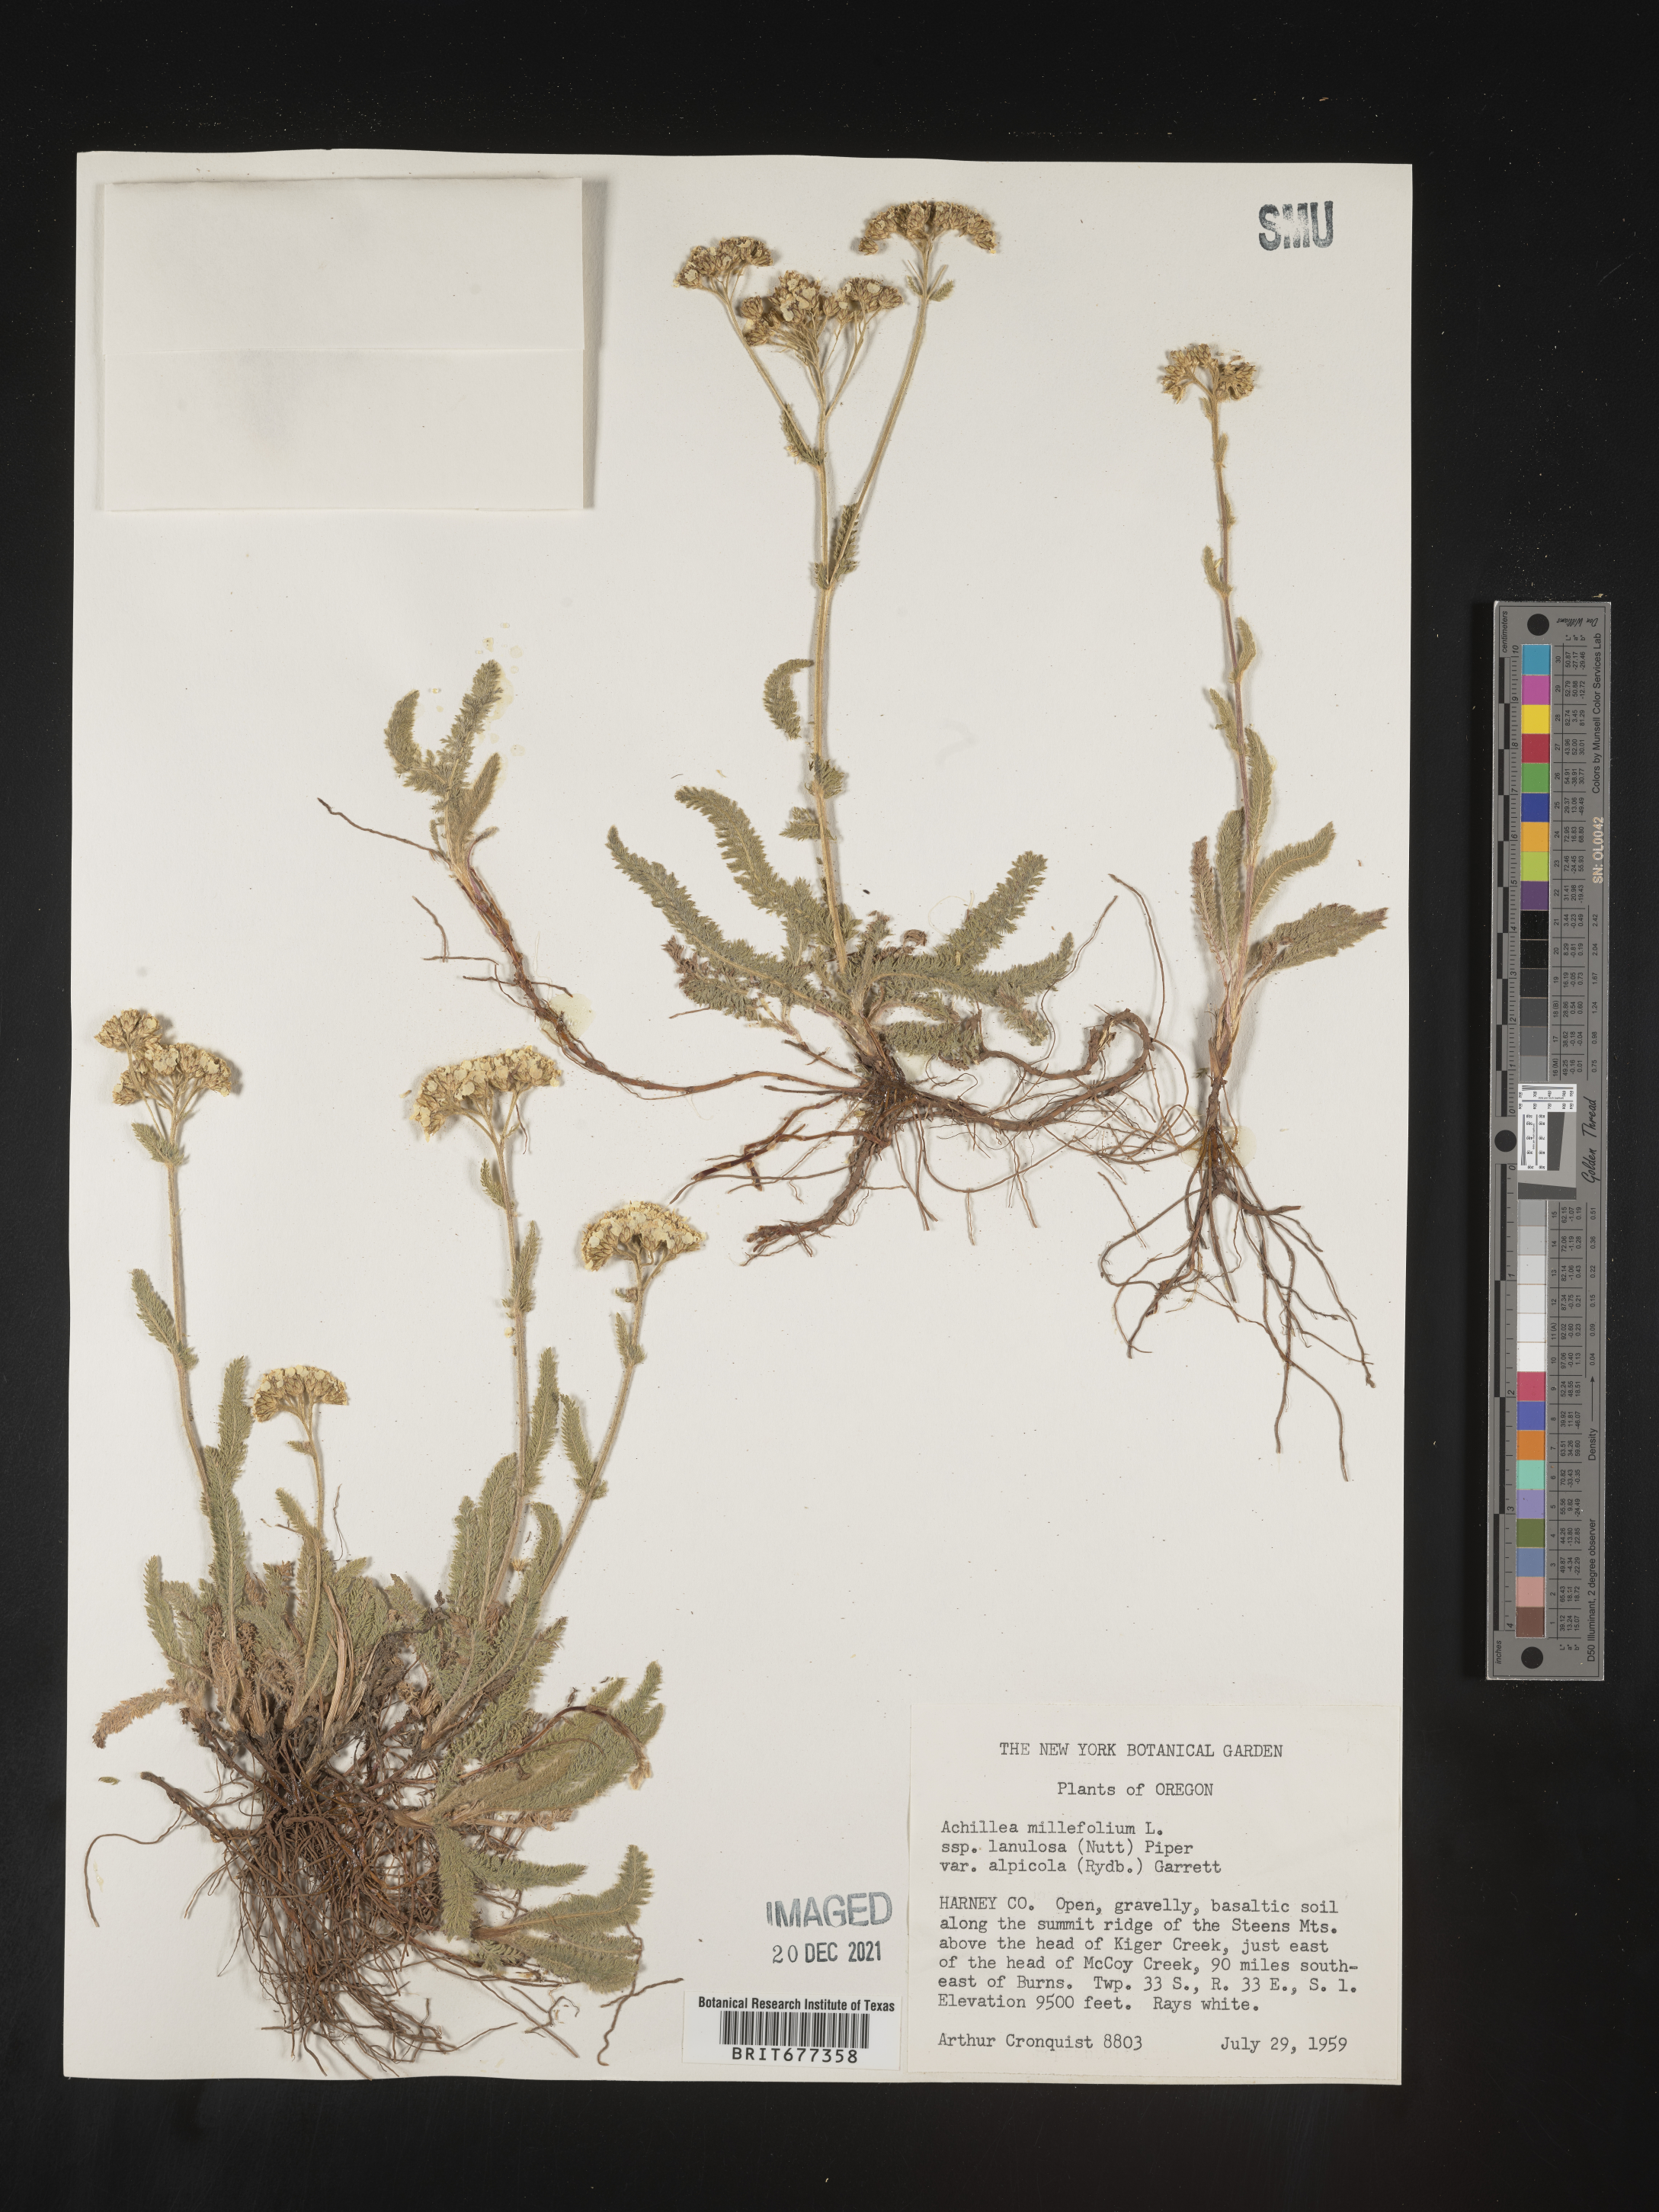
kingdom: Plantae
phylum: Tracheophyta
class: Magnoliopsida
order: Asterales
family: Asteraceae
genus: Achillea
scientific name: Achillea millefolium
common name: Yarrow
